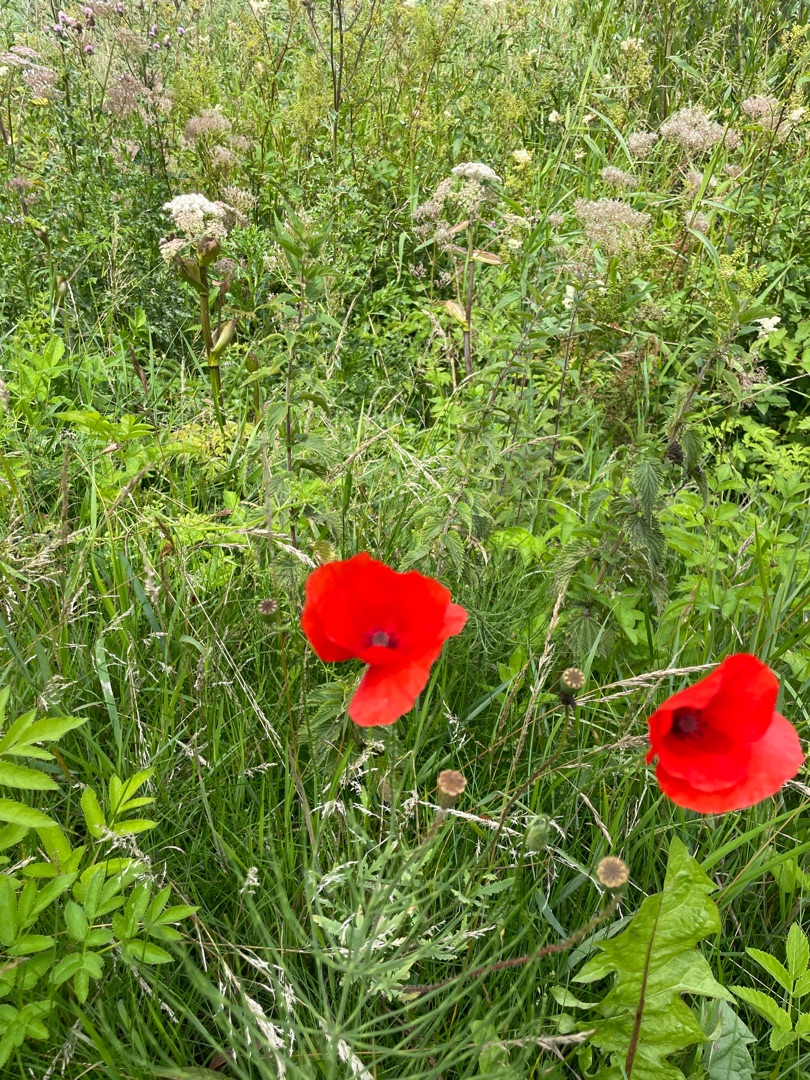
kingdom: Plantae
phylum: Tracheophyta
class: Magnoliopsida
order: Ranunculales
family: Papaveraceae
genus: Papaver
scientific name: Papaver rhoeas
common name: Korn-valmue
